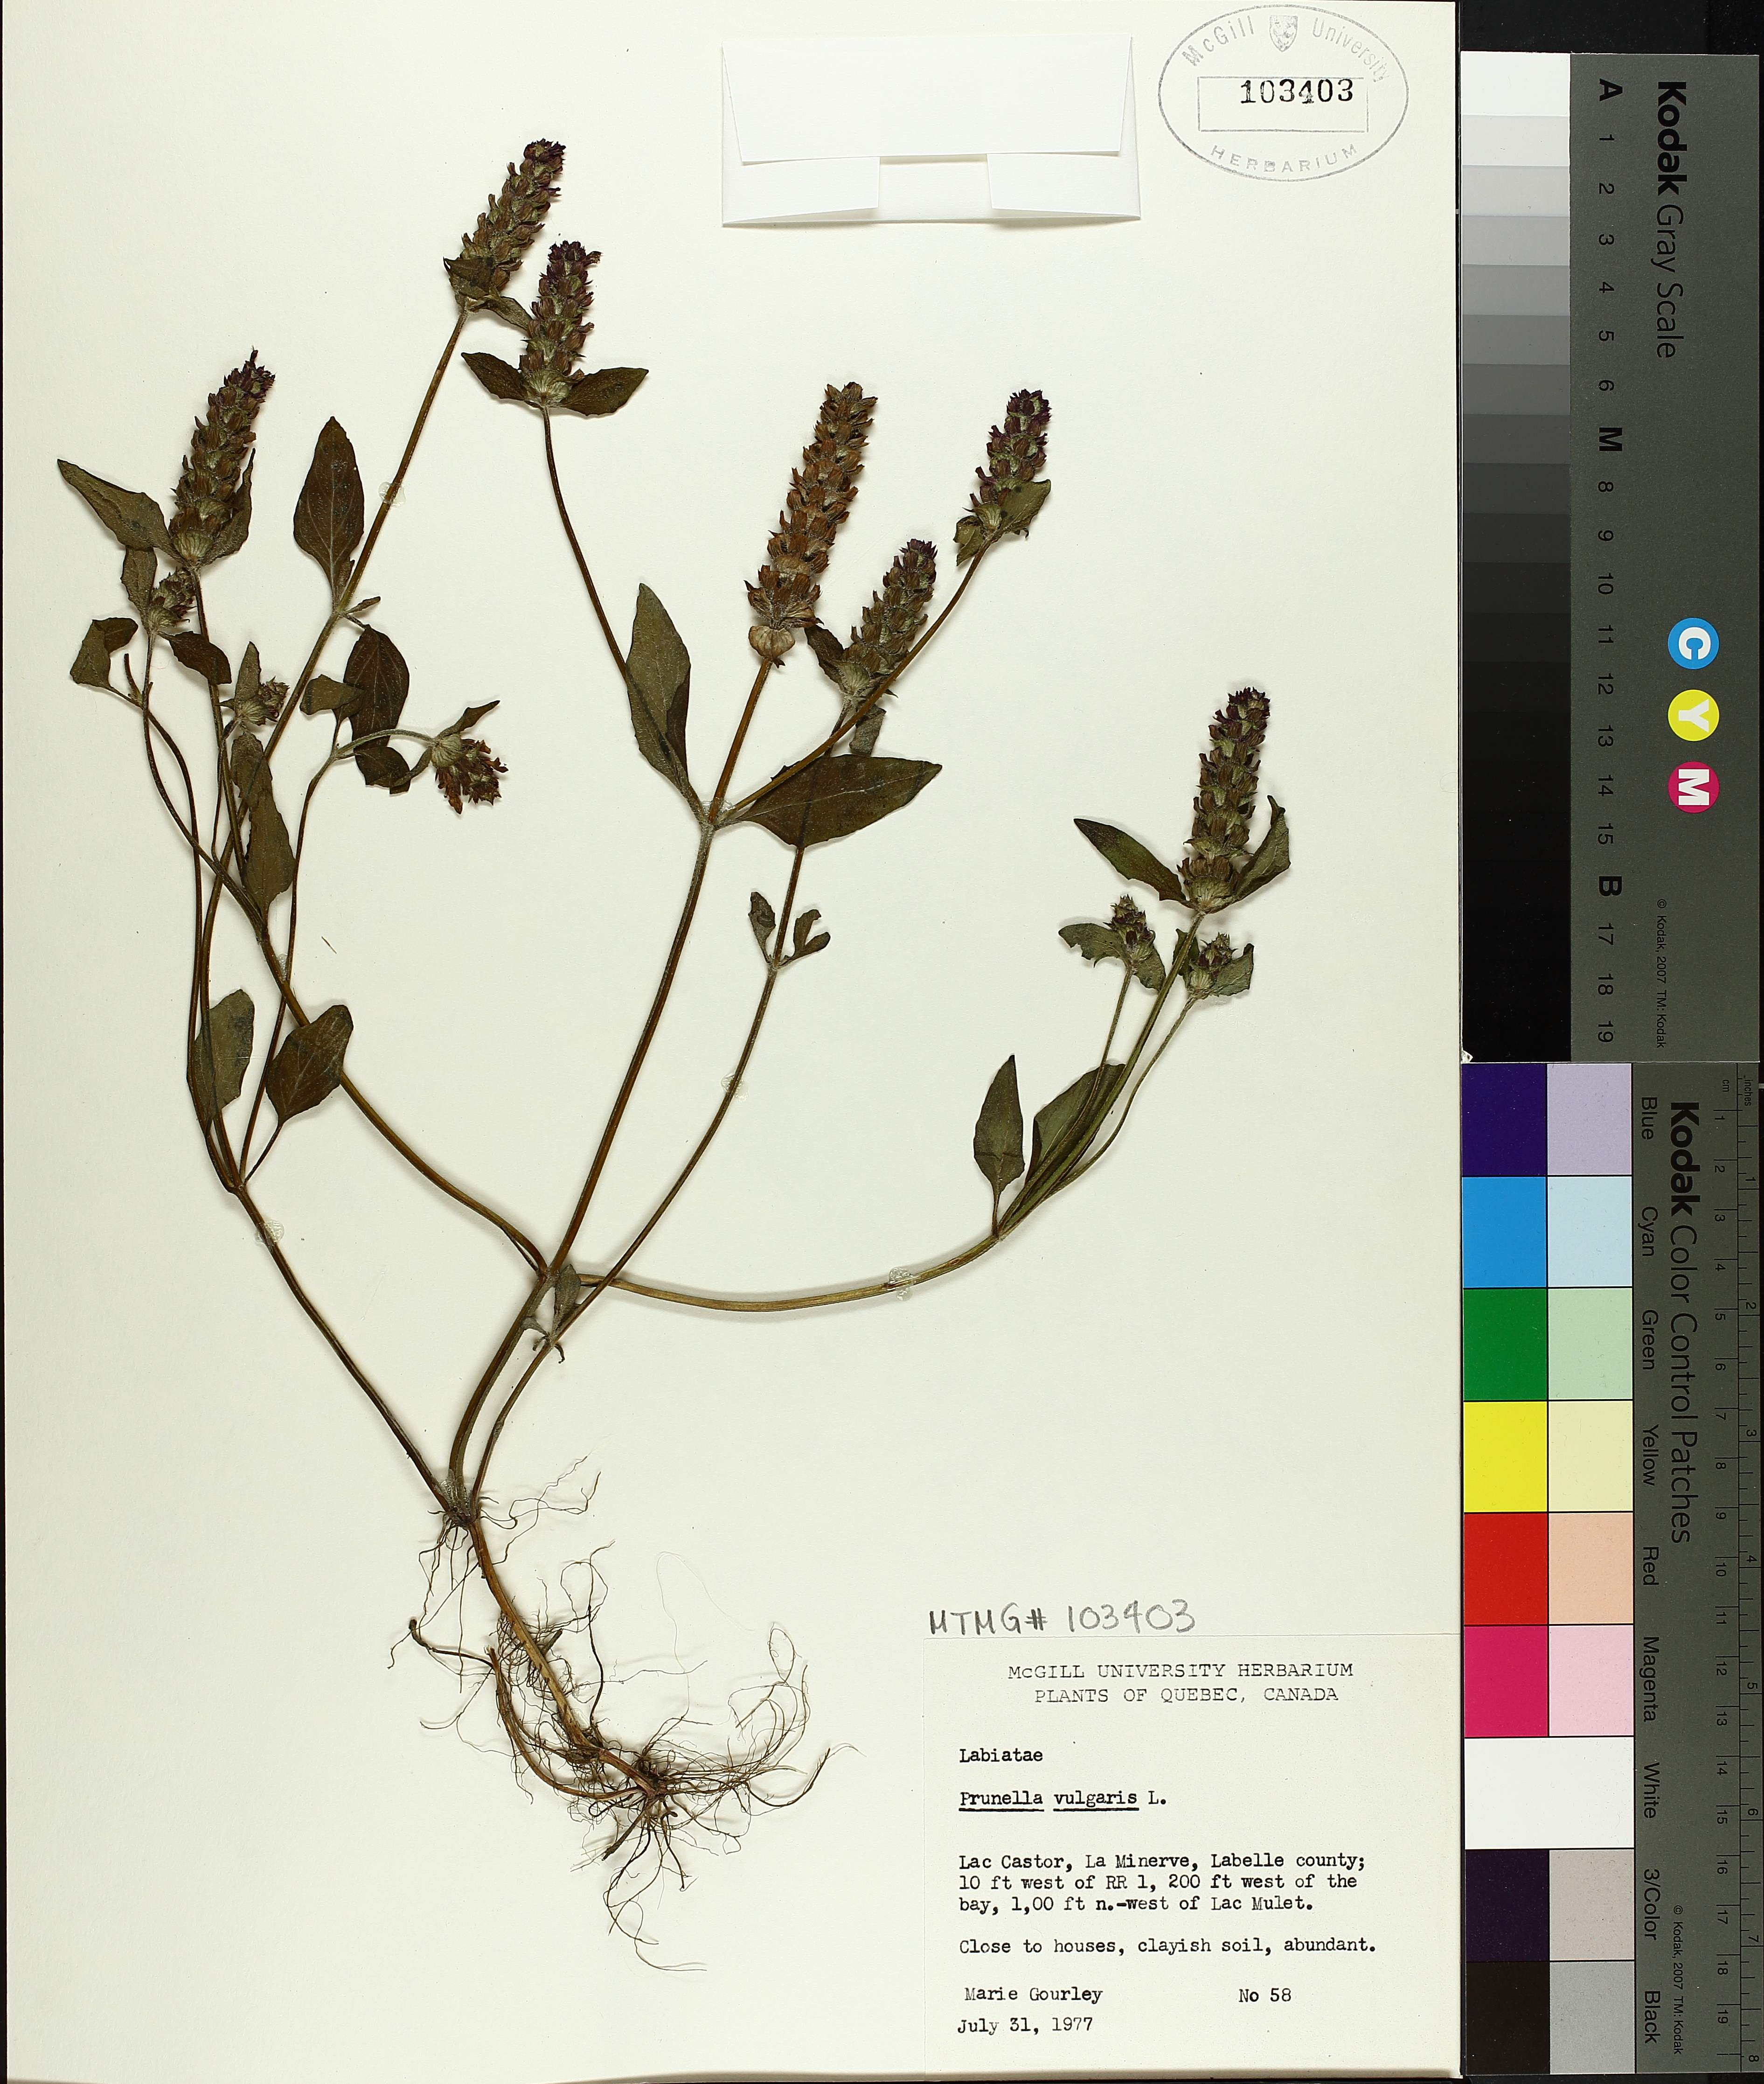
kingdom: Plantae
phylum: Tracheophyta
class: Magnoliopsida
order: Lamiales
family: Lamiaceae
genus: Prunella
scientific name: Prunella vulgaris
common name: Heal-all
